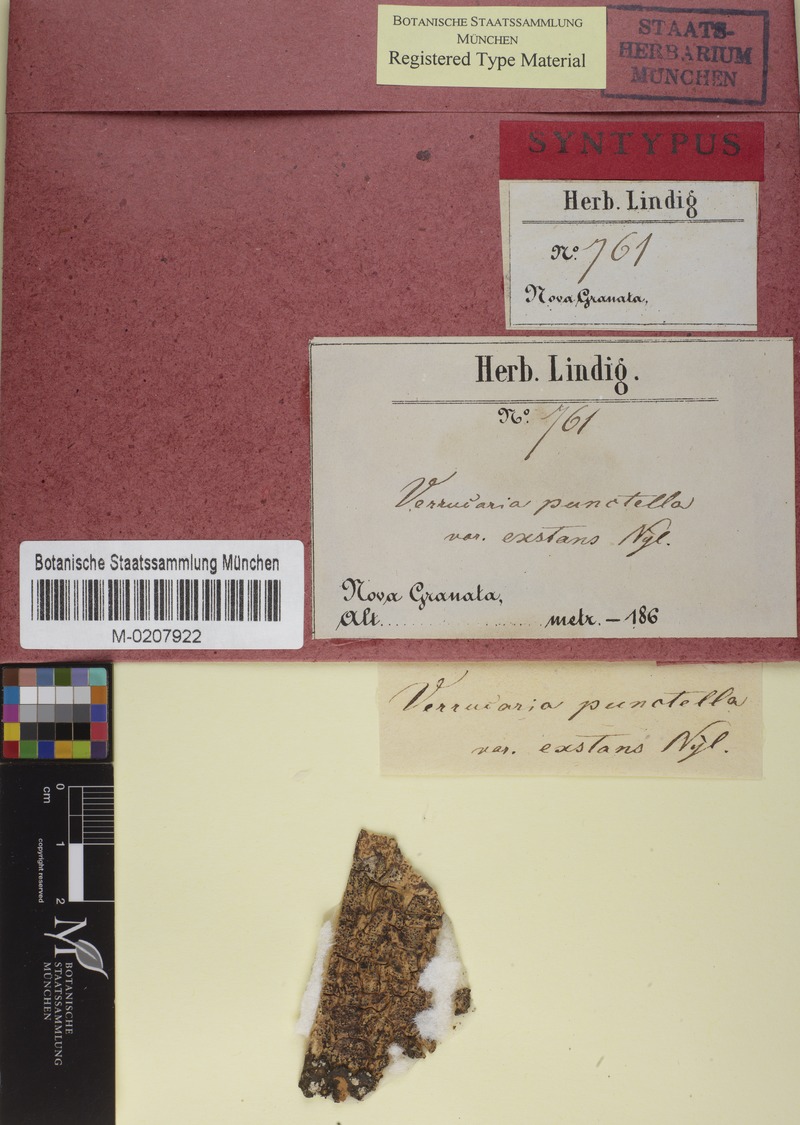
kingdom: Fungi
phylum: Ascomycota
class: Eurotiomycetes
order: Pyrenulales
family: Pyrenulaceae
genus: Pyrenula
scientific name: Pyrenula pinguis
